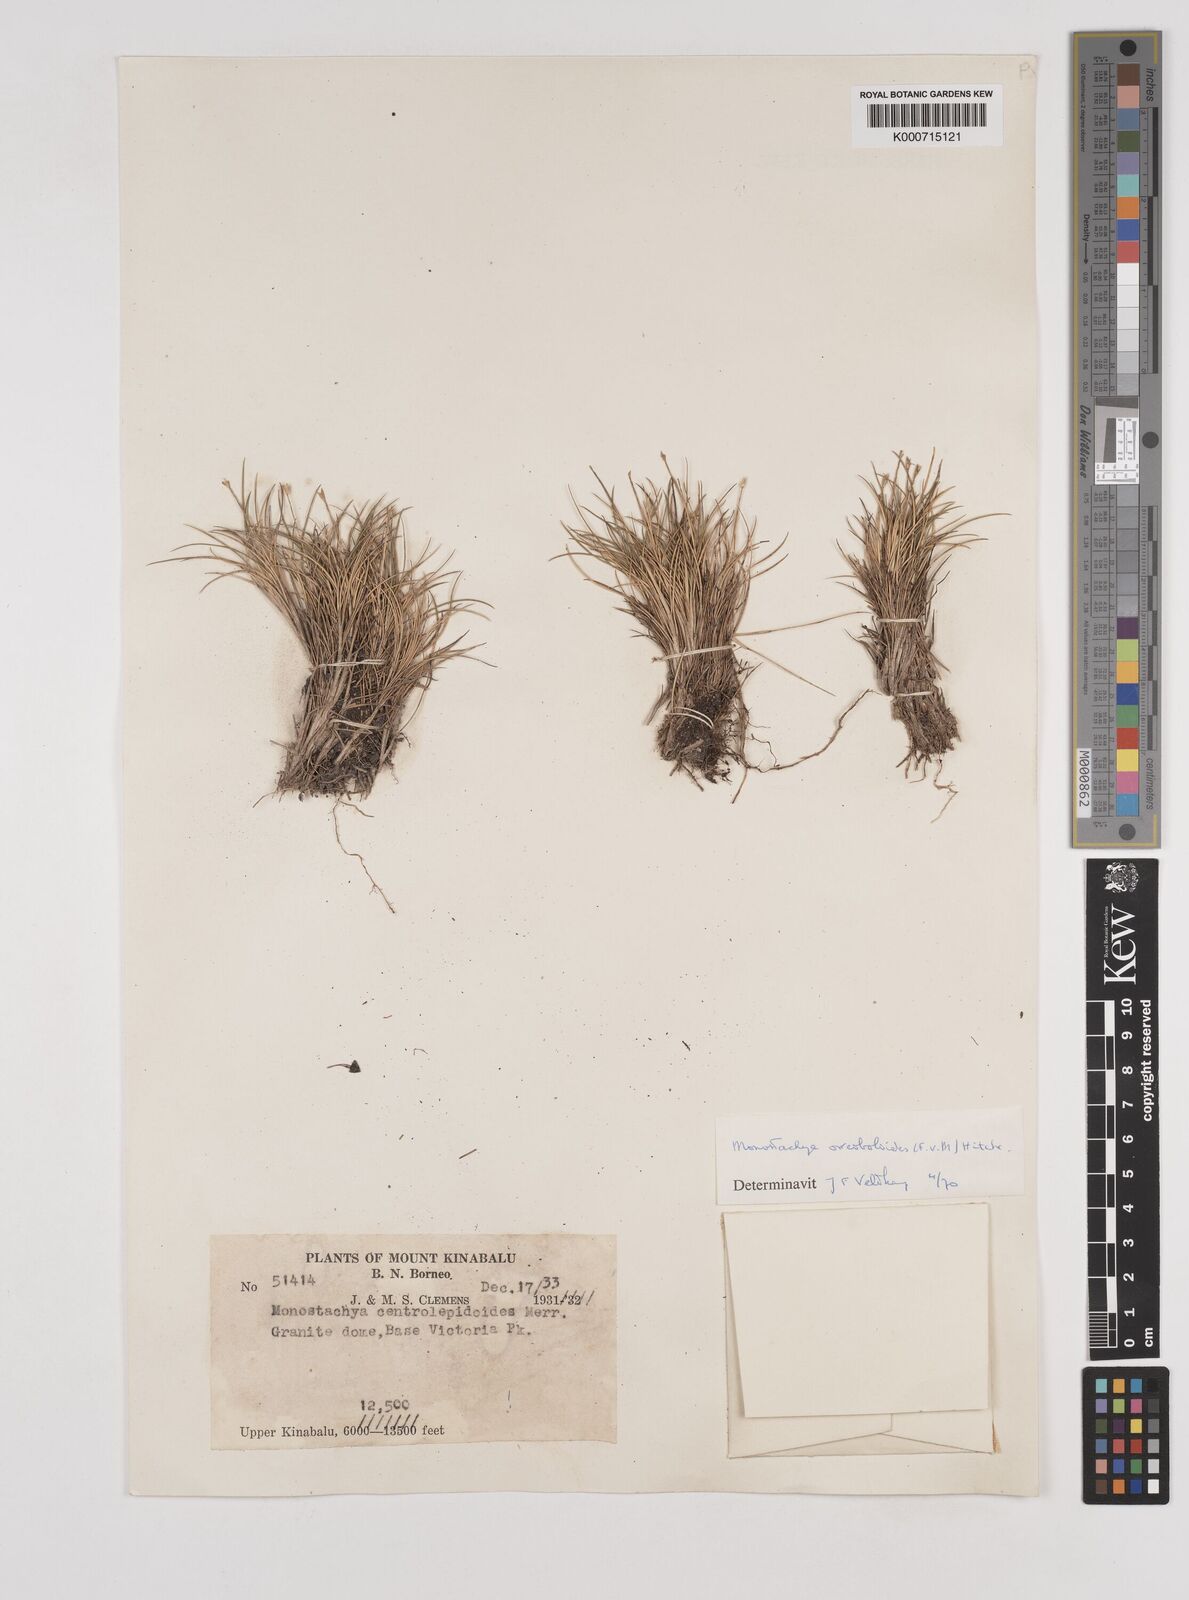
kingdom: Plantae
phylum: Tracheophyta
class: Liliopsida
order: Poales
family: Poaceae
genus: Rytidosperma
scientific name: Rytidosperma oreoboloides
